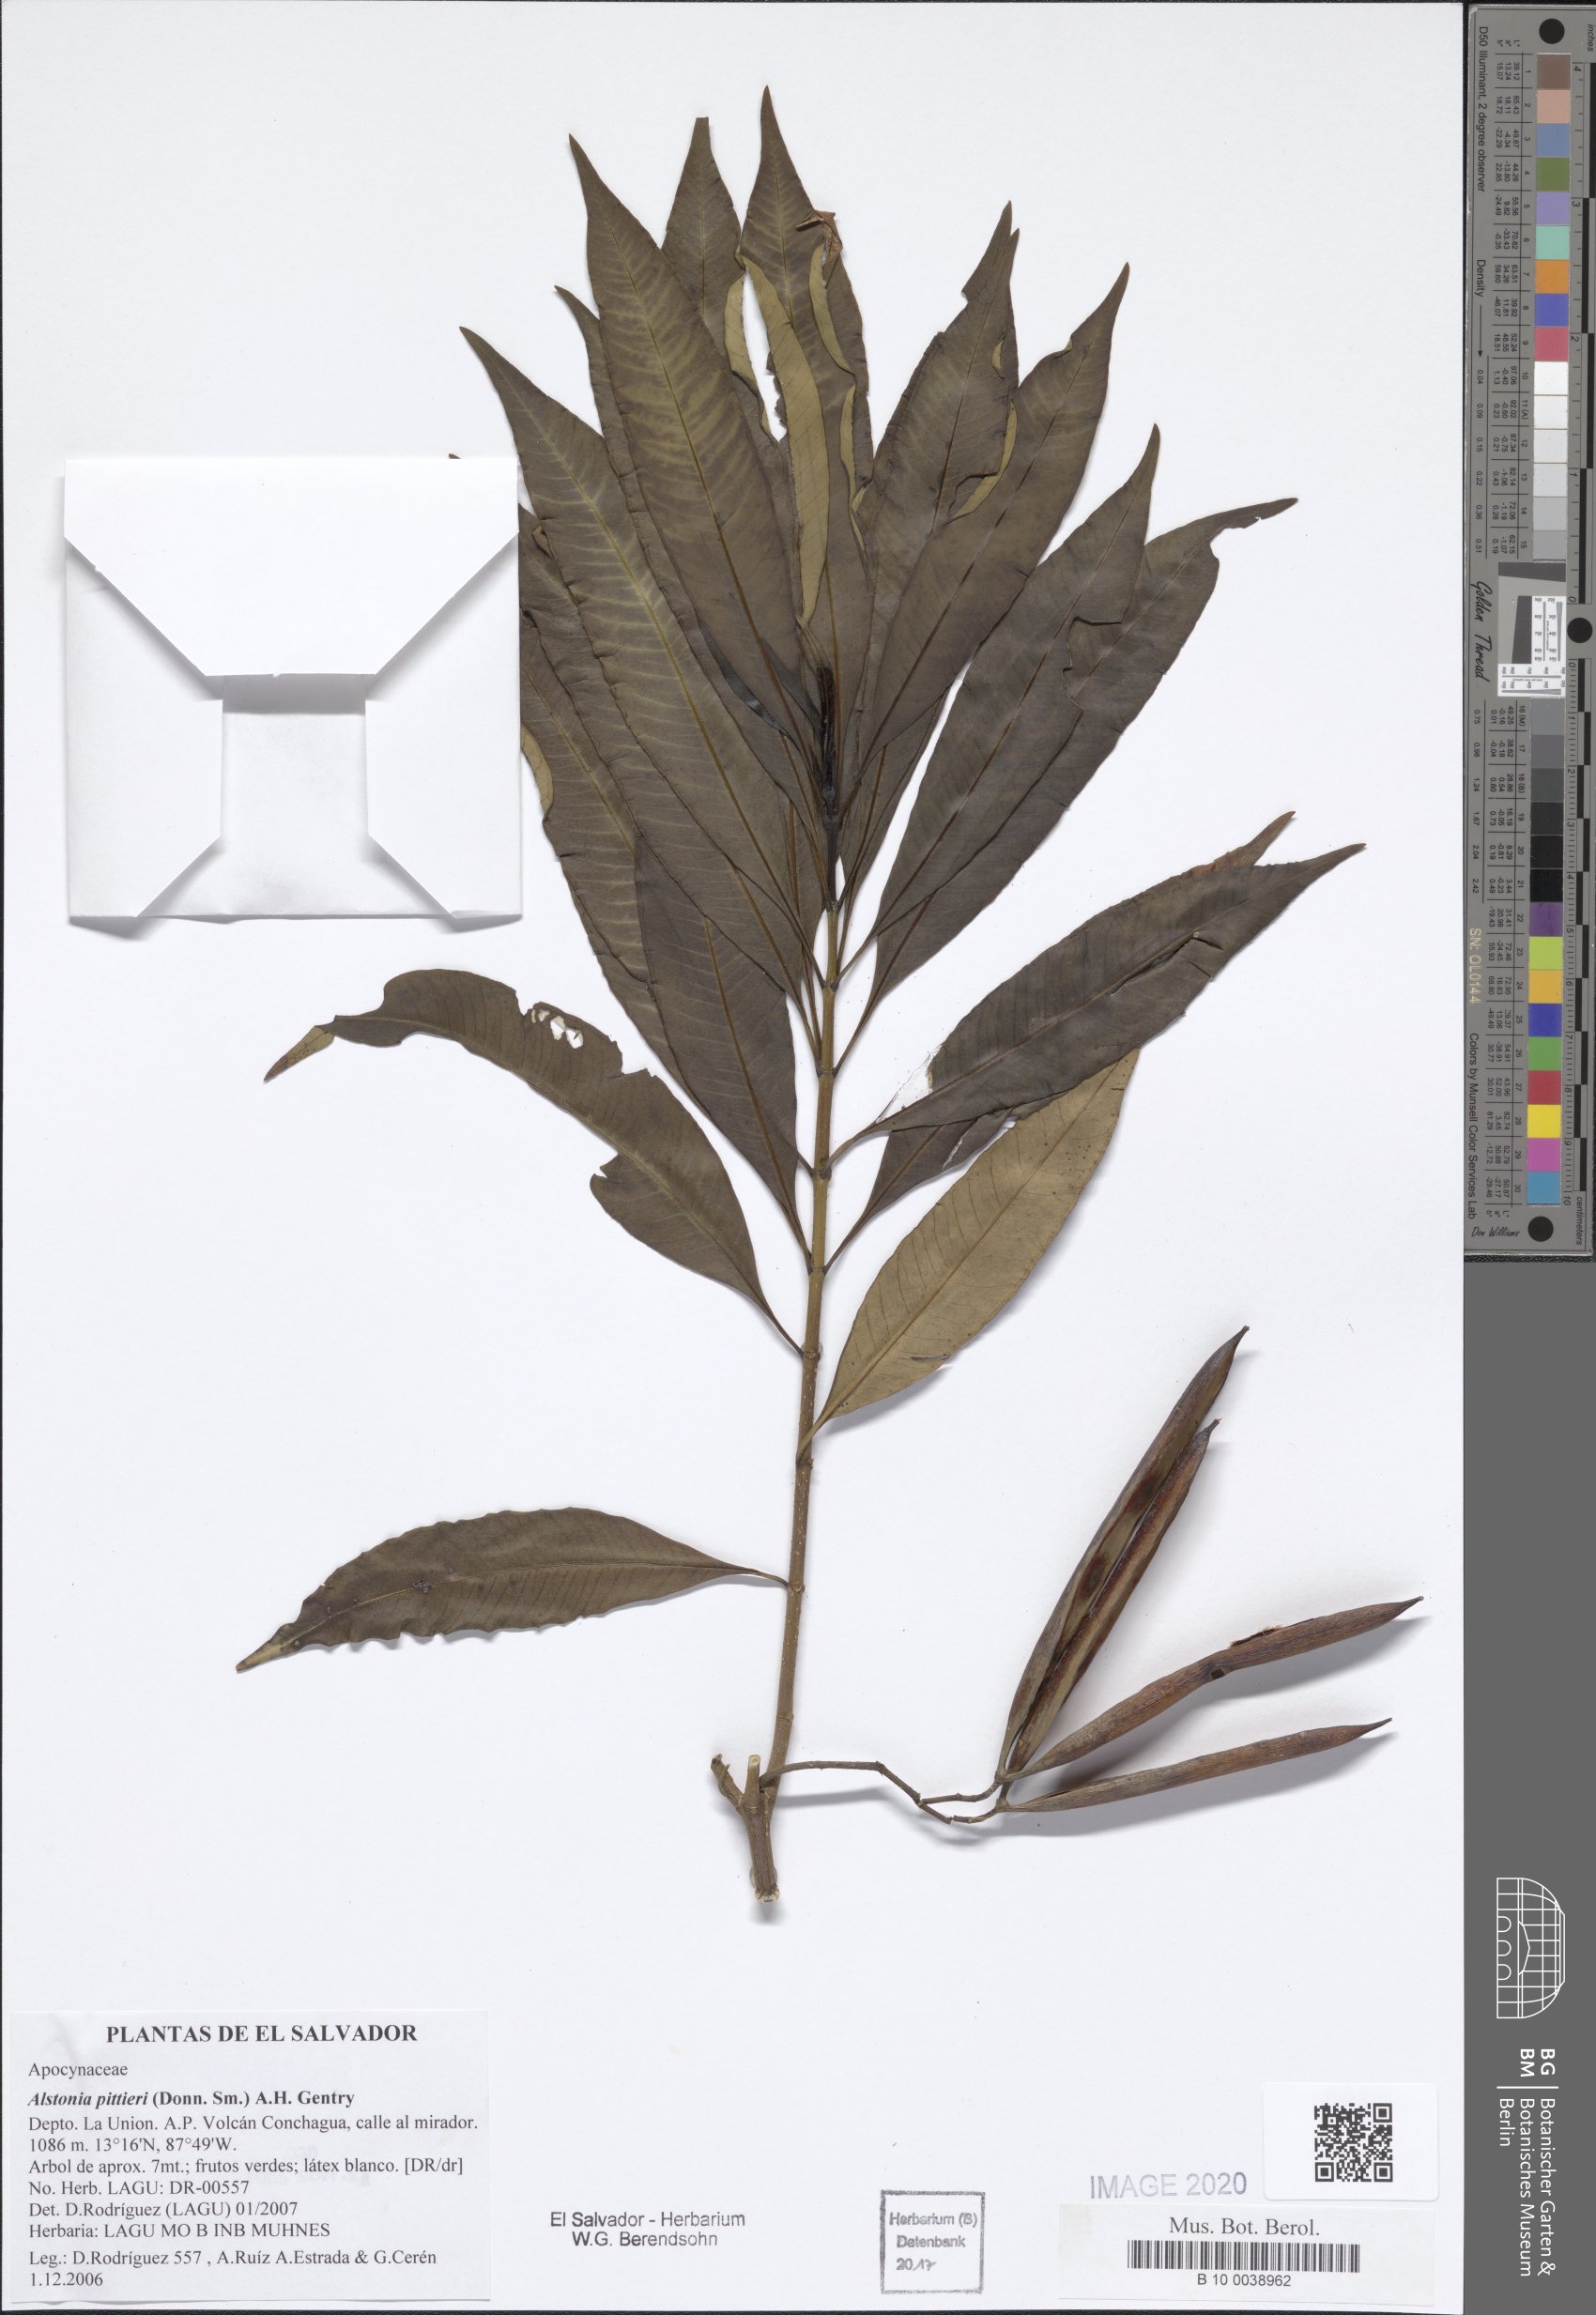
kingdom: Plantae
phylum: Tracheophyta
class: Magnoliopsida
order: Gentianales
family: Apocynaceae
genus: Tonduzia
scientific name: Tonduzia longifolia
